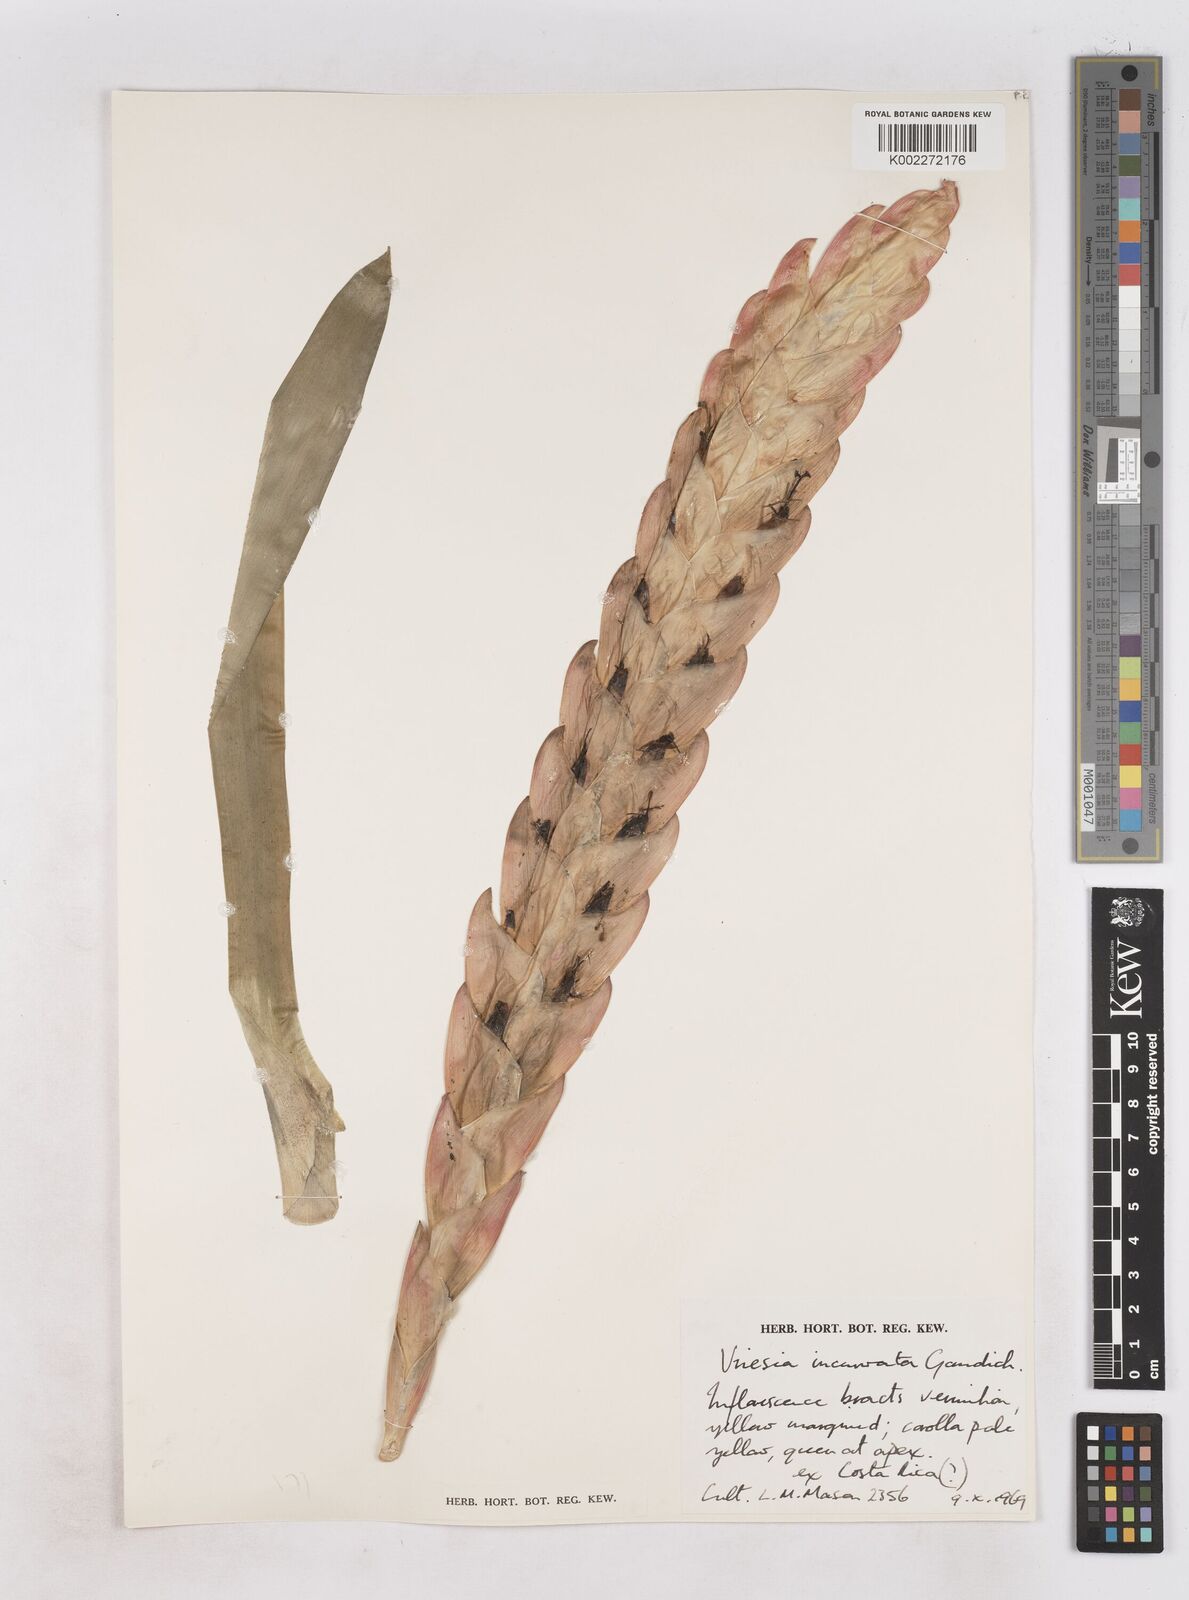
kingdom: Plantae
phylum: Tracheophyta
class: Liliopsida
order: Poales
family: Bromeliaceae
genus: Vriesea
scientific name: Vriesea incurvata
